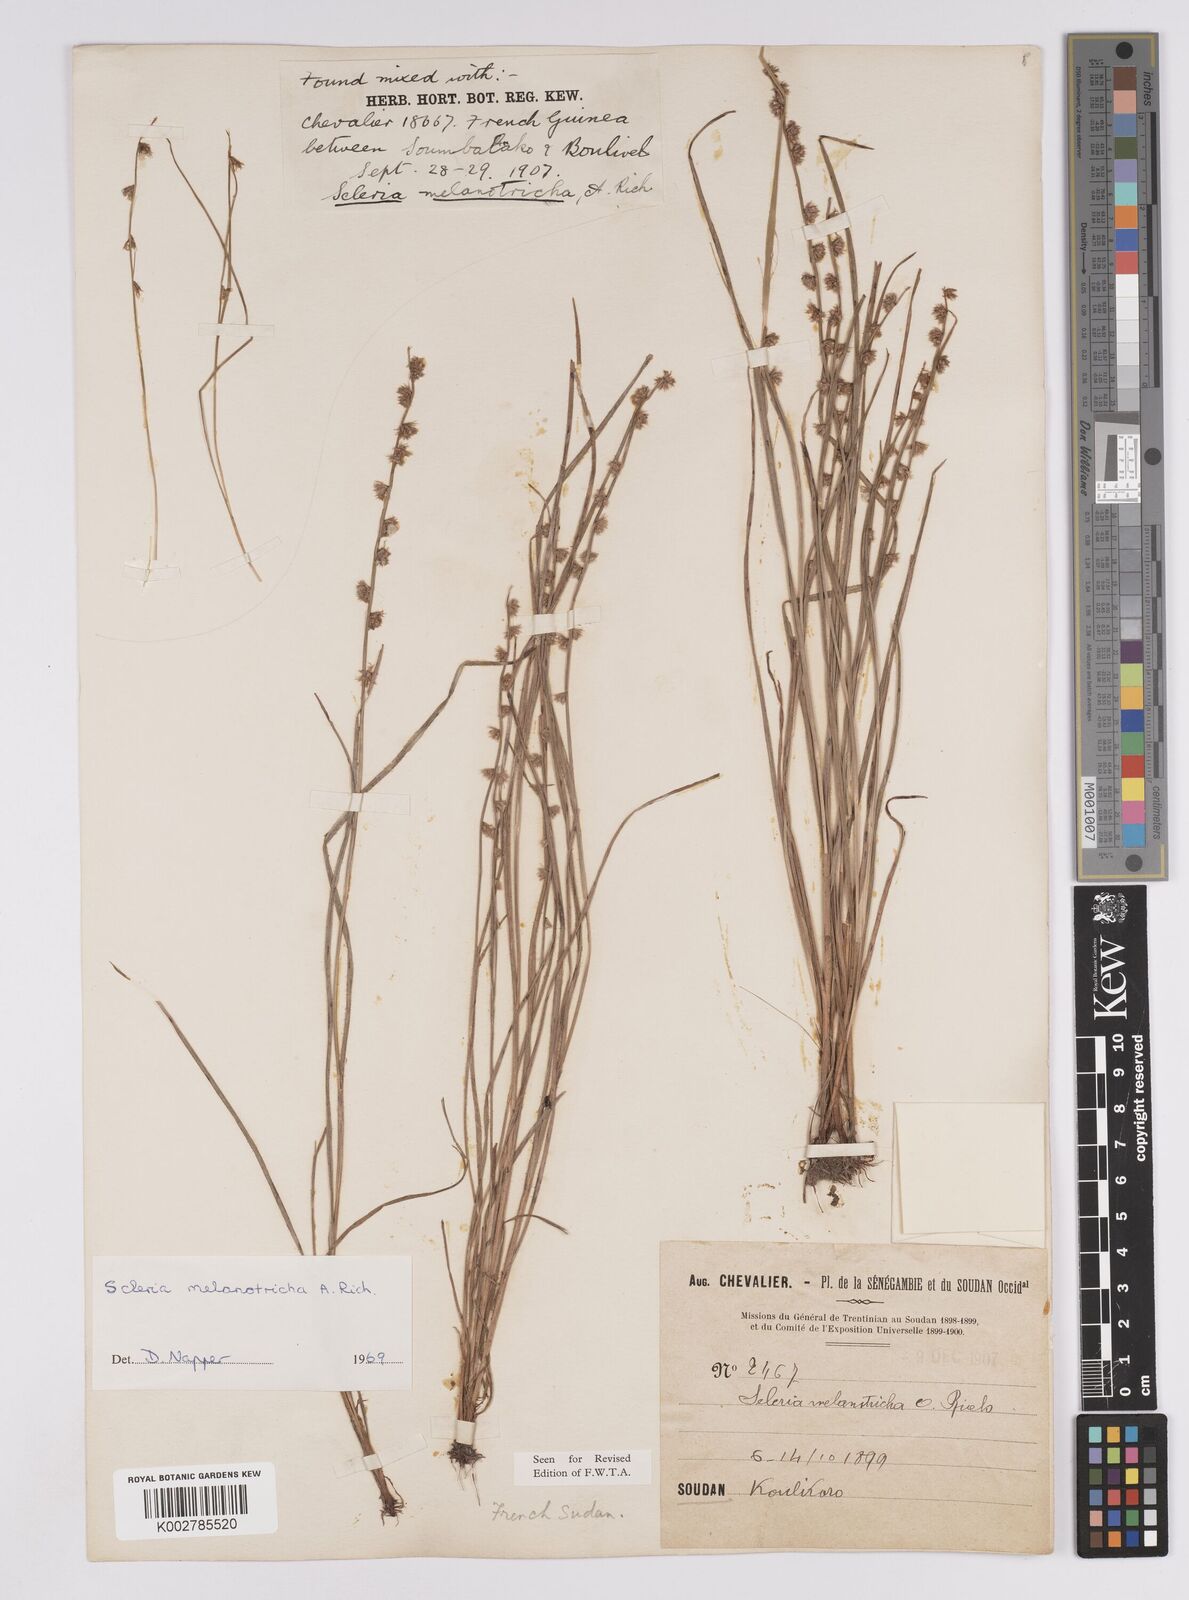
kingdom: Plantae
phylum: Tracheophyta
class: Liliopsida
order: Poales
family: Cyperaceae
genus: Scleria
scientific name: Scleria melanotricha
